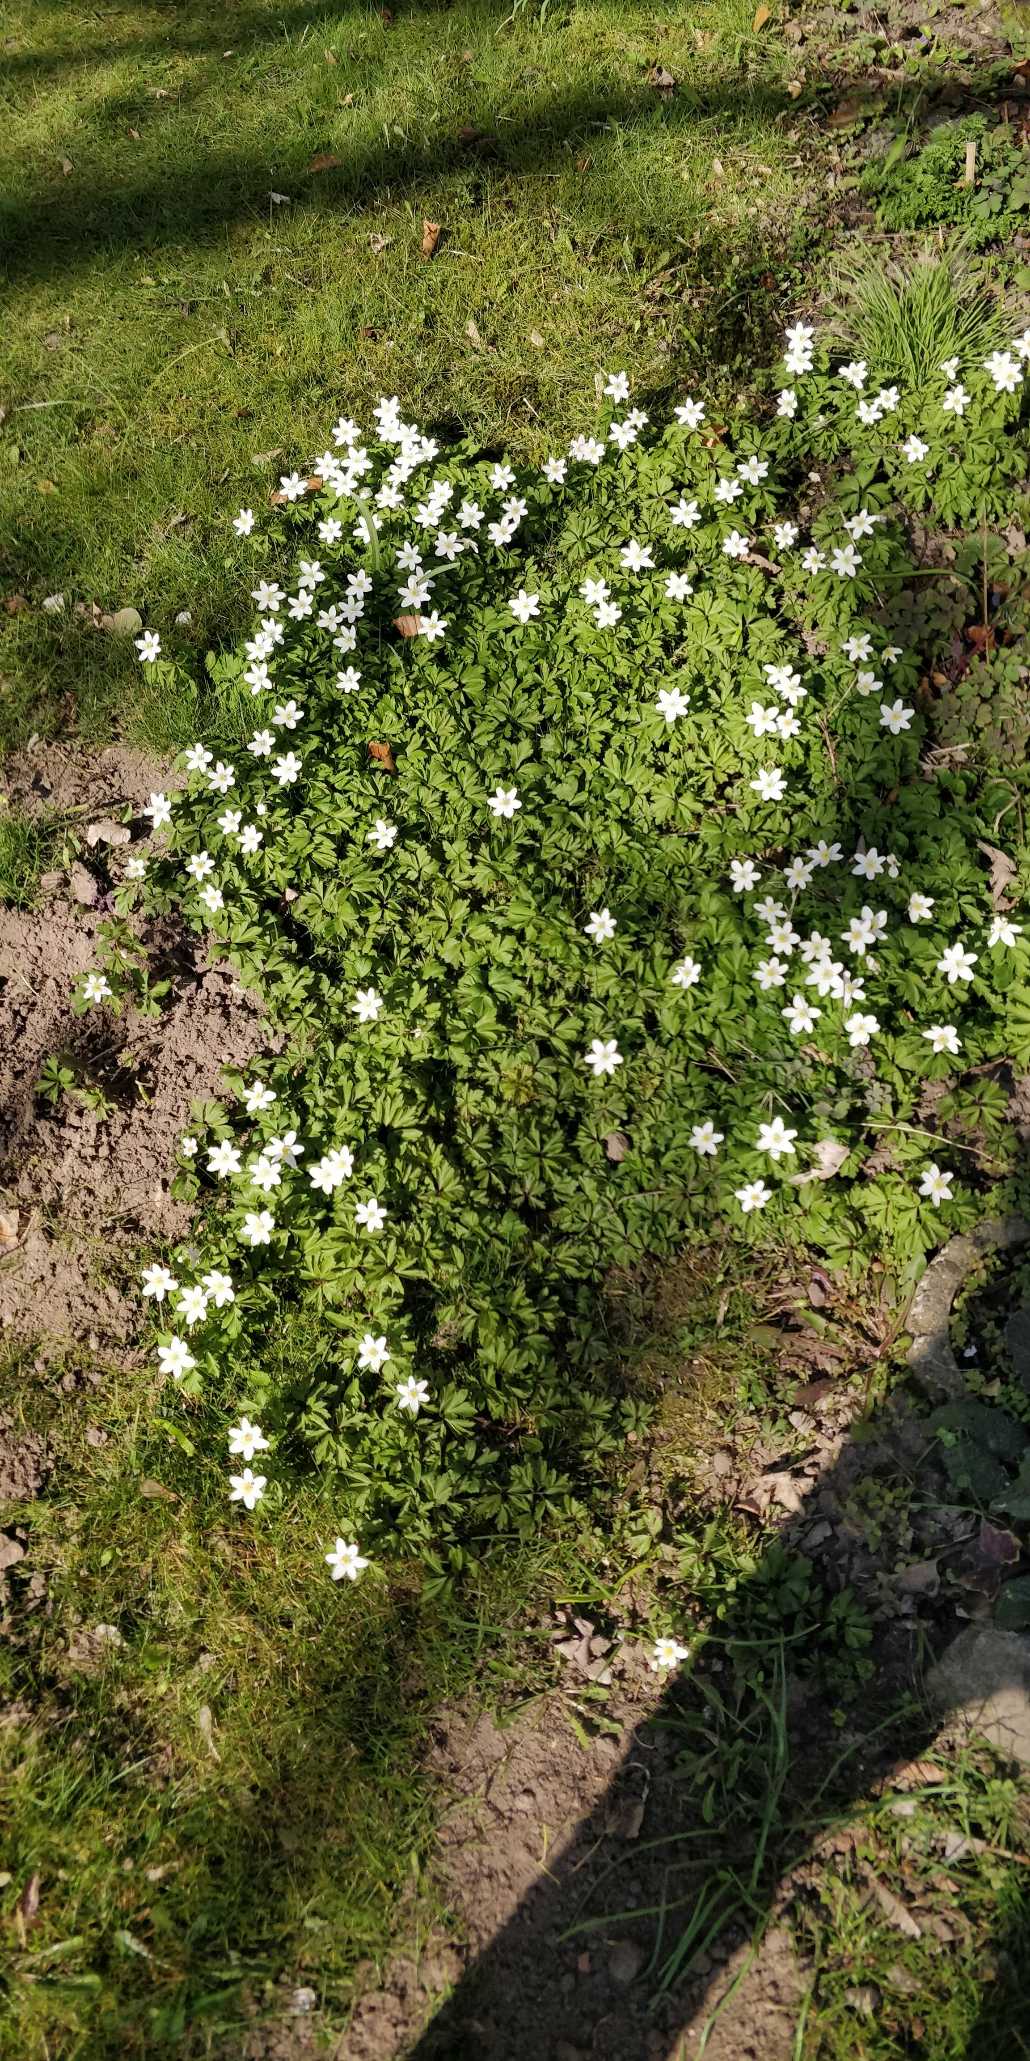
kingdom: Plantae
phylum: Tracheophyta
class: Magnoliopsida
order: Ranunculales
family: Ranunculaceae
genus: Anemone
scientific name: Anemone nemorosa
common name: Hvid anemone
